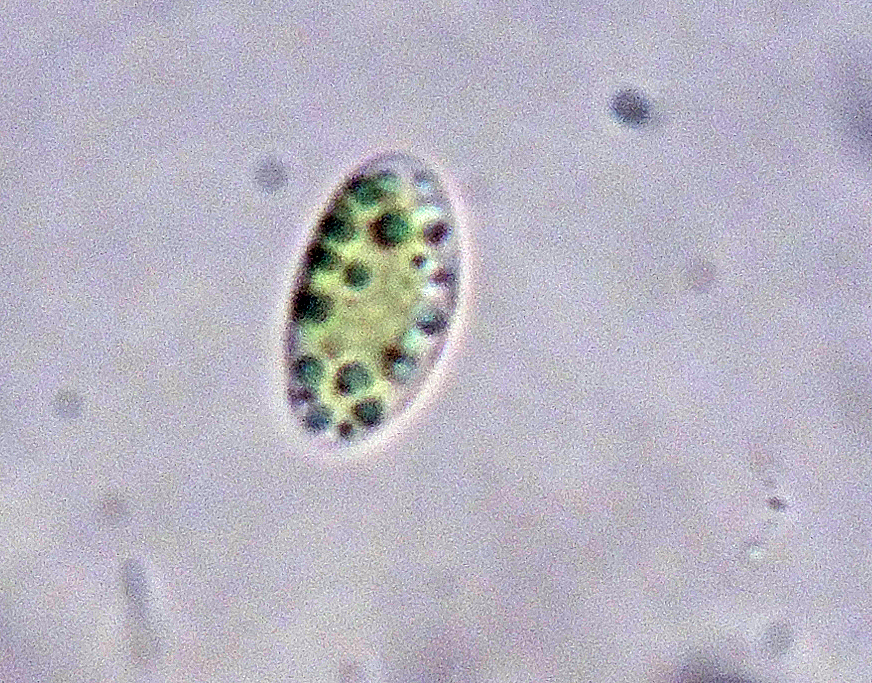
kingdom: Fungi
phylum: Ascomycota
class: Leotiomycetes
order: Leotiales
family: Mniaeciaceae
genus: Mniaecia
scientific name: Mniaecia gloeocapsae
